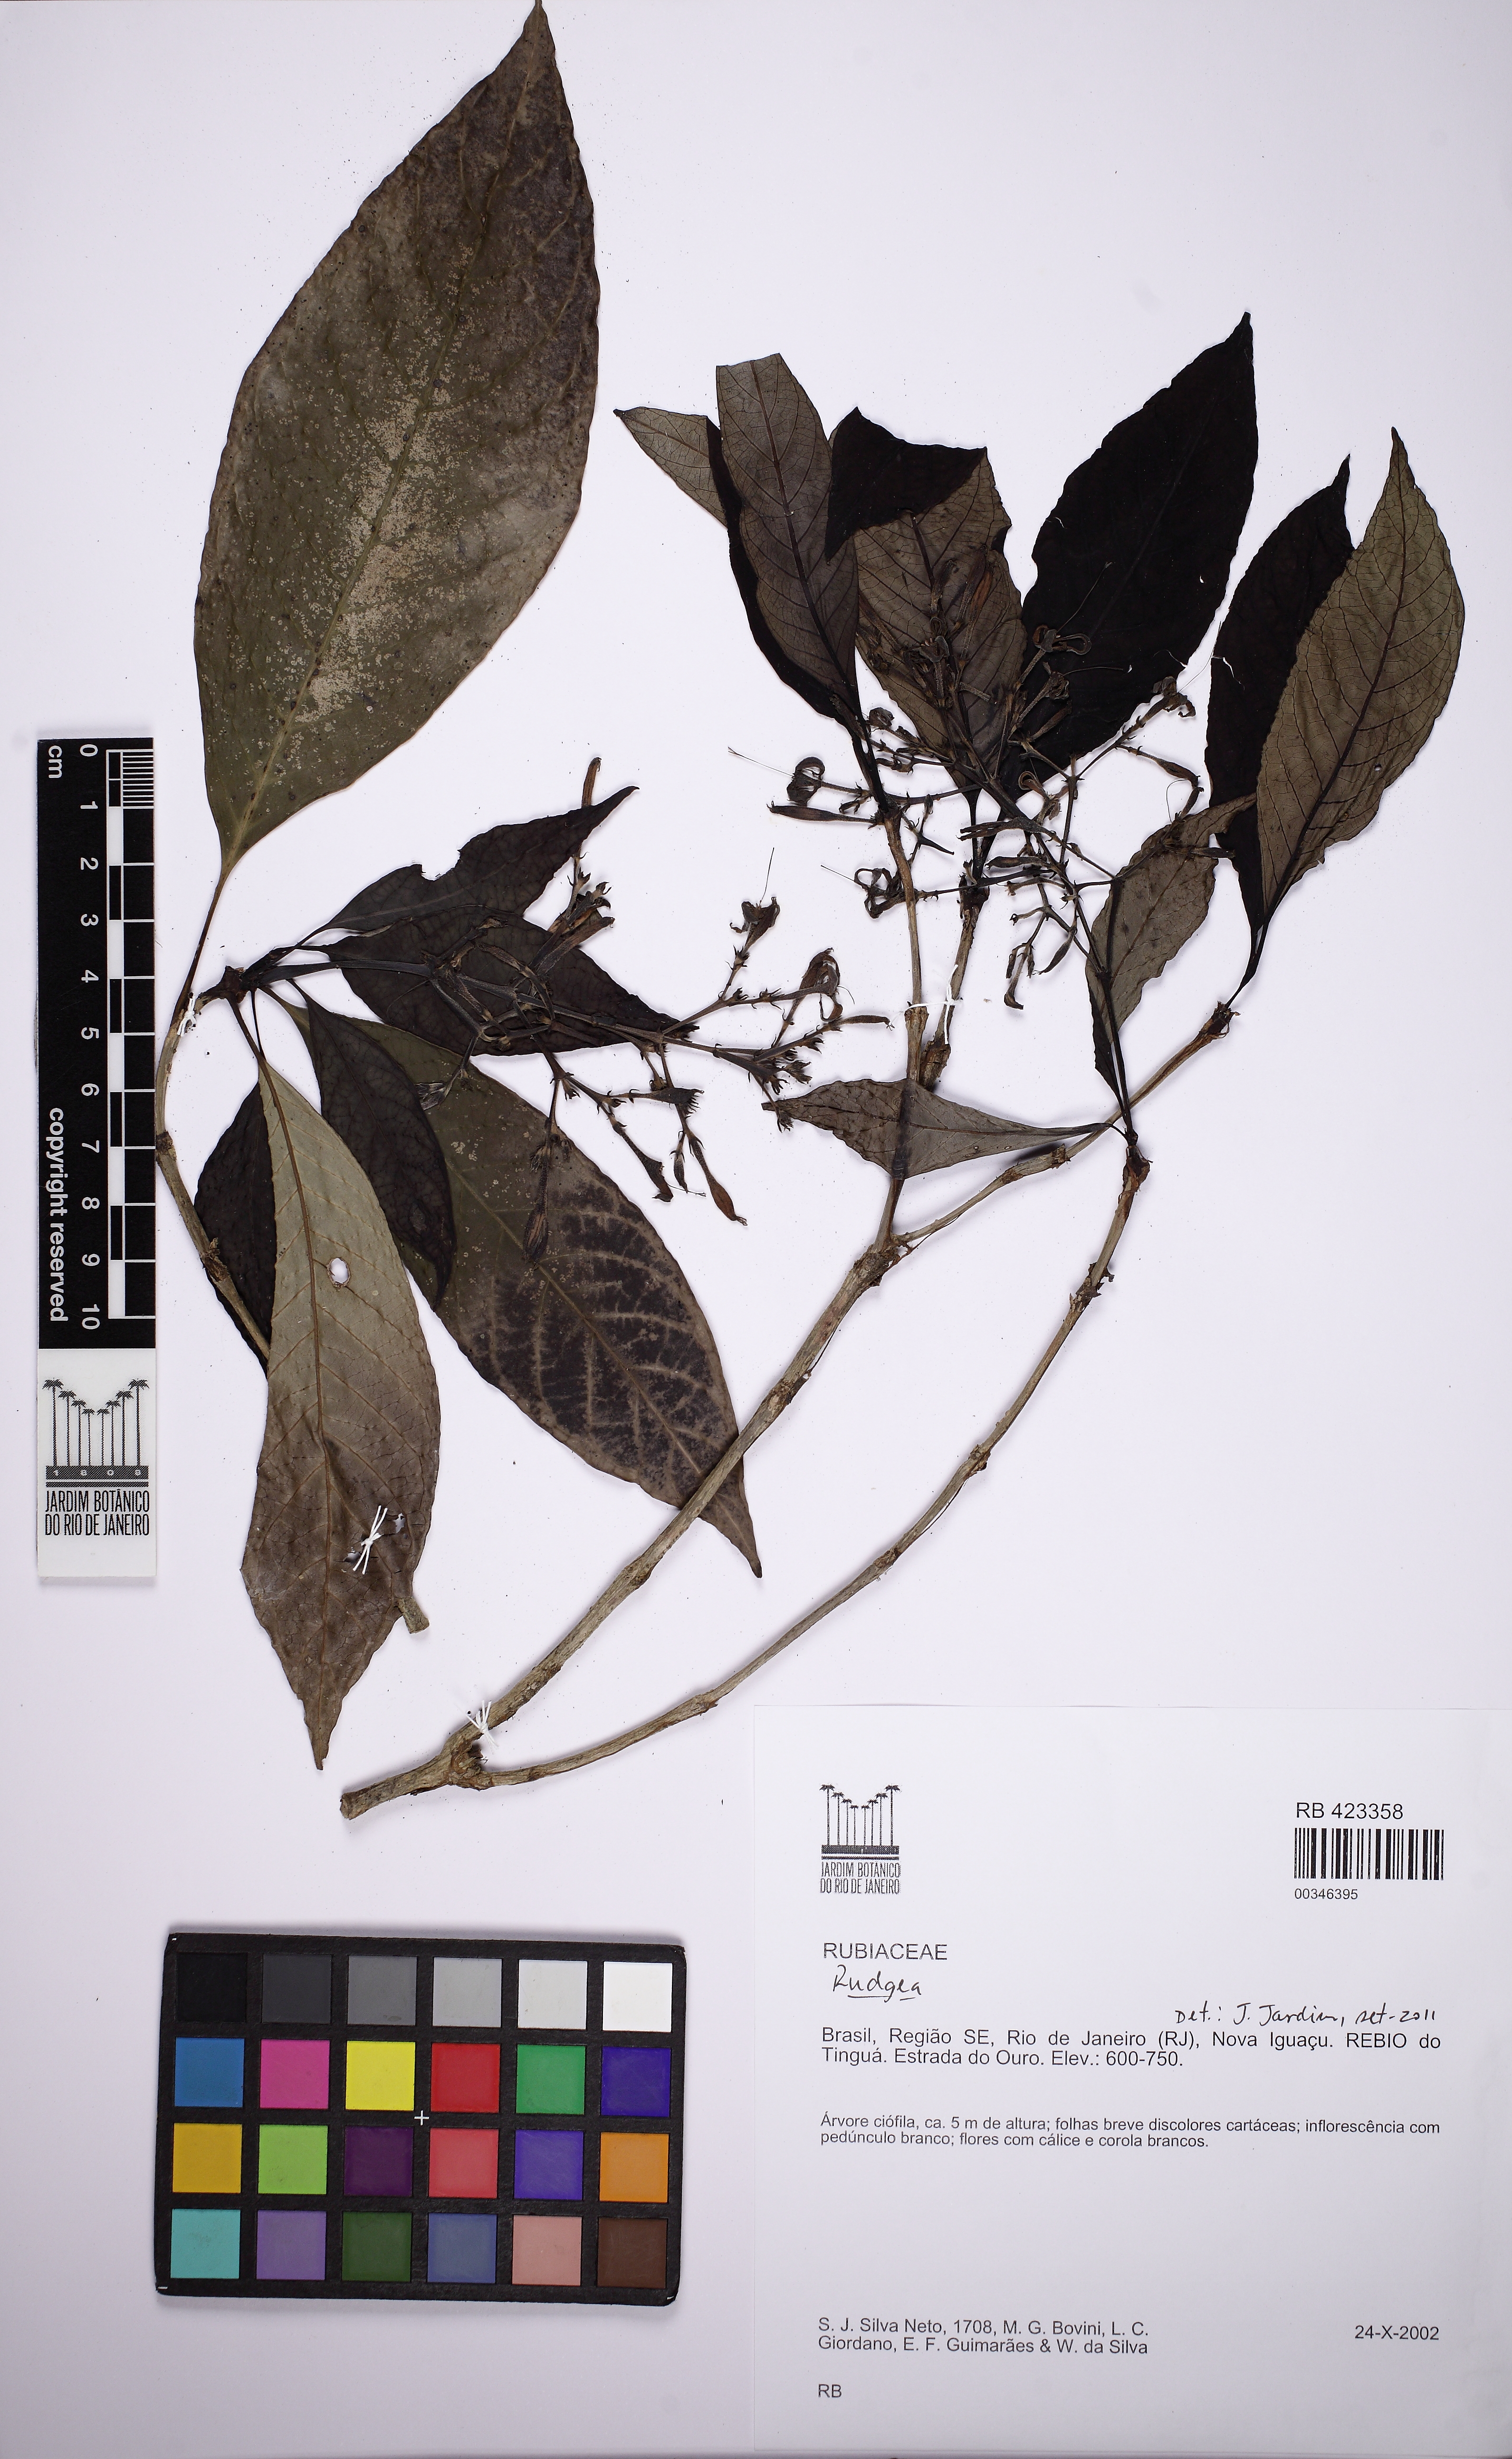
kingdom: Plantae
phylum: Tracheophyta
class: Magnoliopsida
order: Gentianales
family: Rubiaceae
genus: Rudgea
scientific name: Rudgea jasminoides
